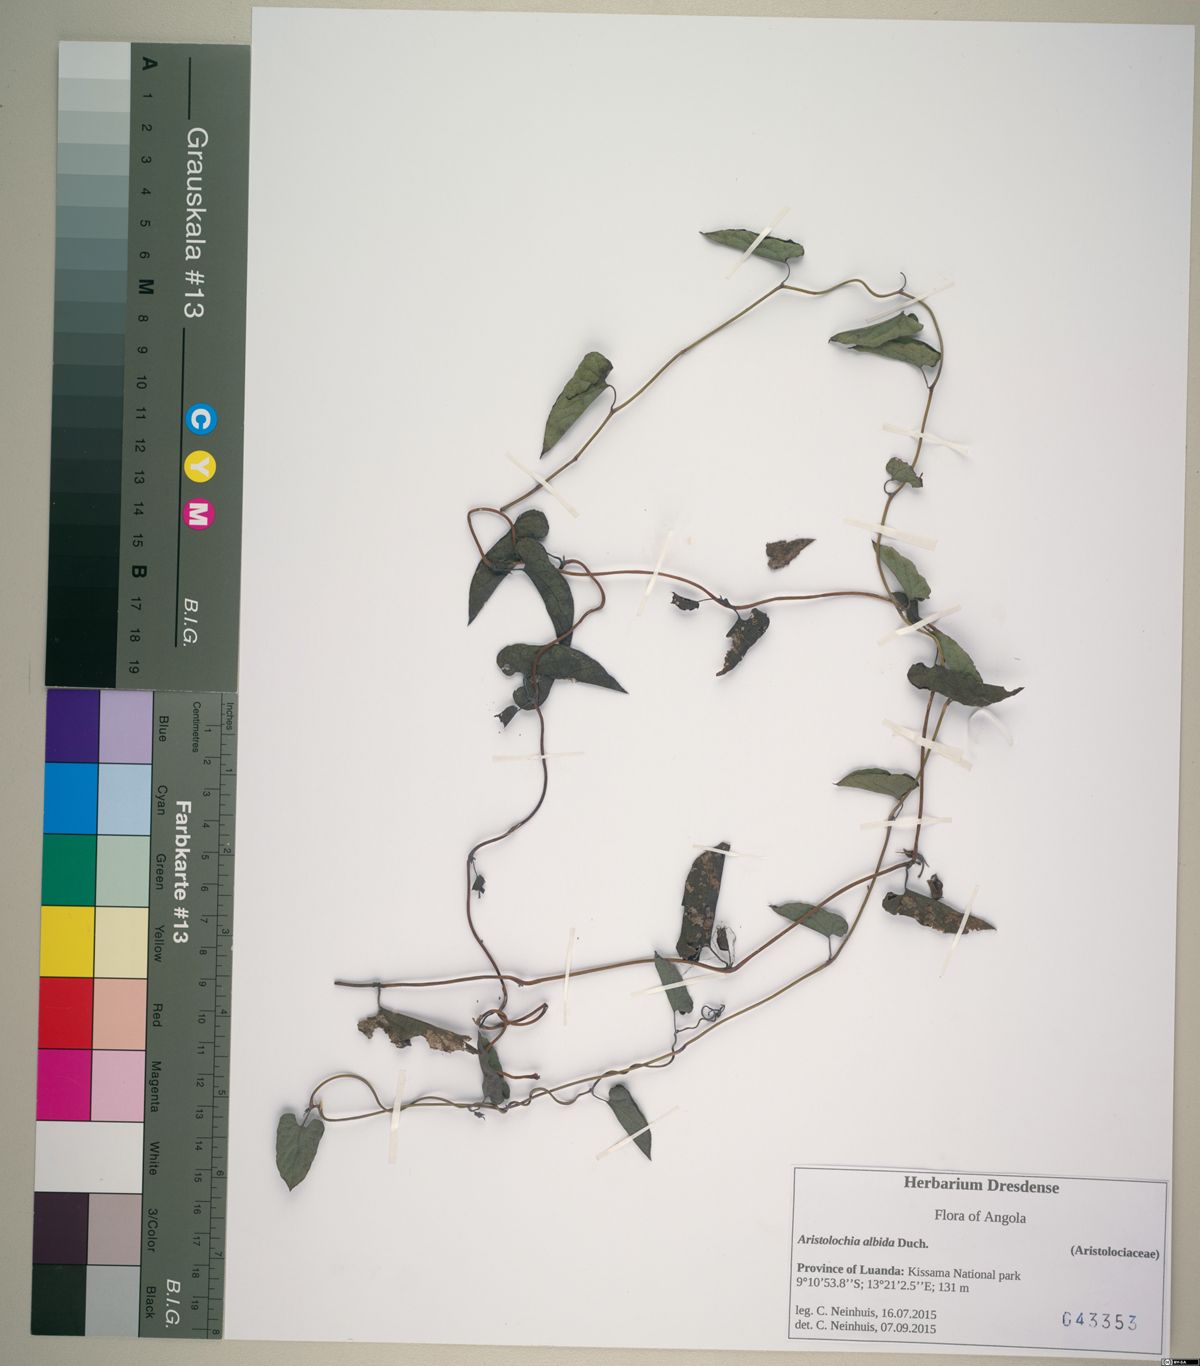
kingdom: Plantae
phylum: Tracheophyta
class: Magnoliopsida
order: Piperales
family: Aristolochiaceae
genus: Aristolochia
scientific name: Aristolochia albida
